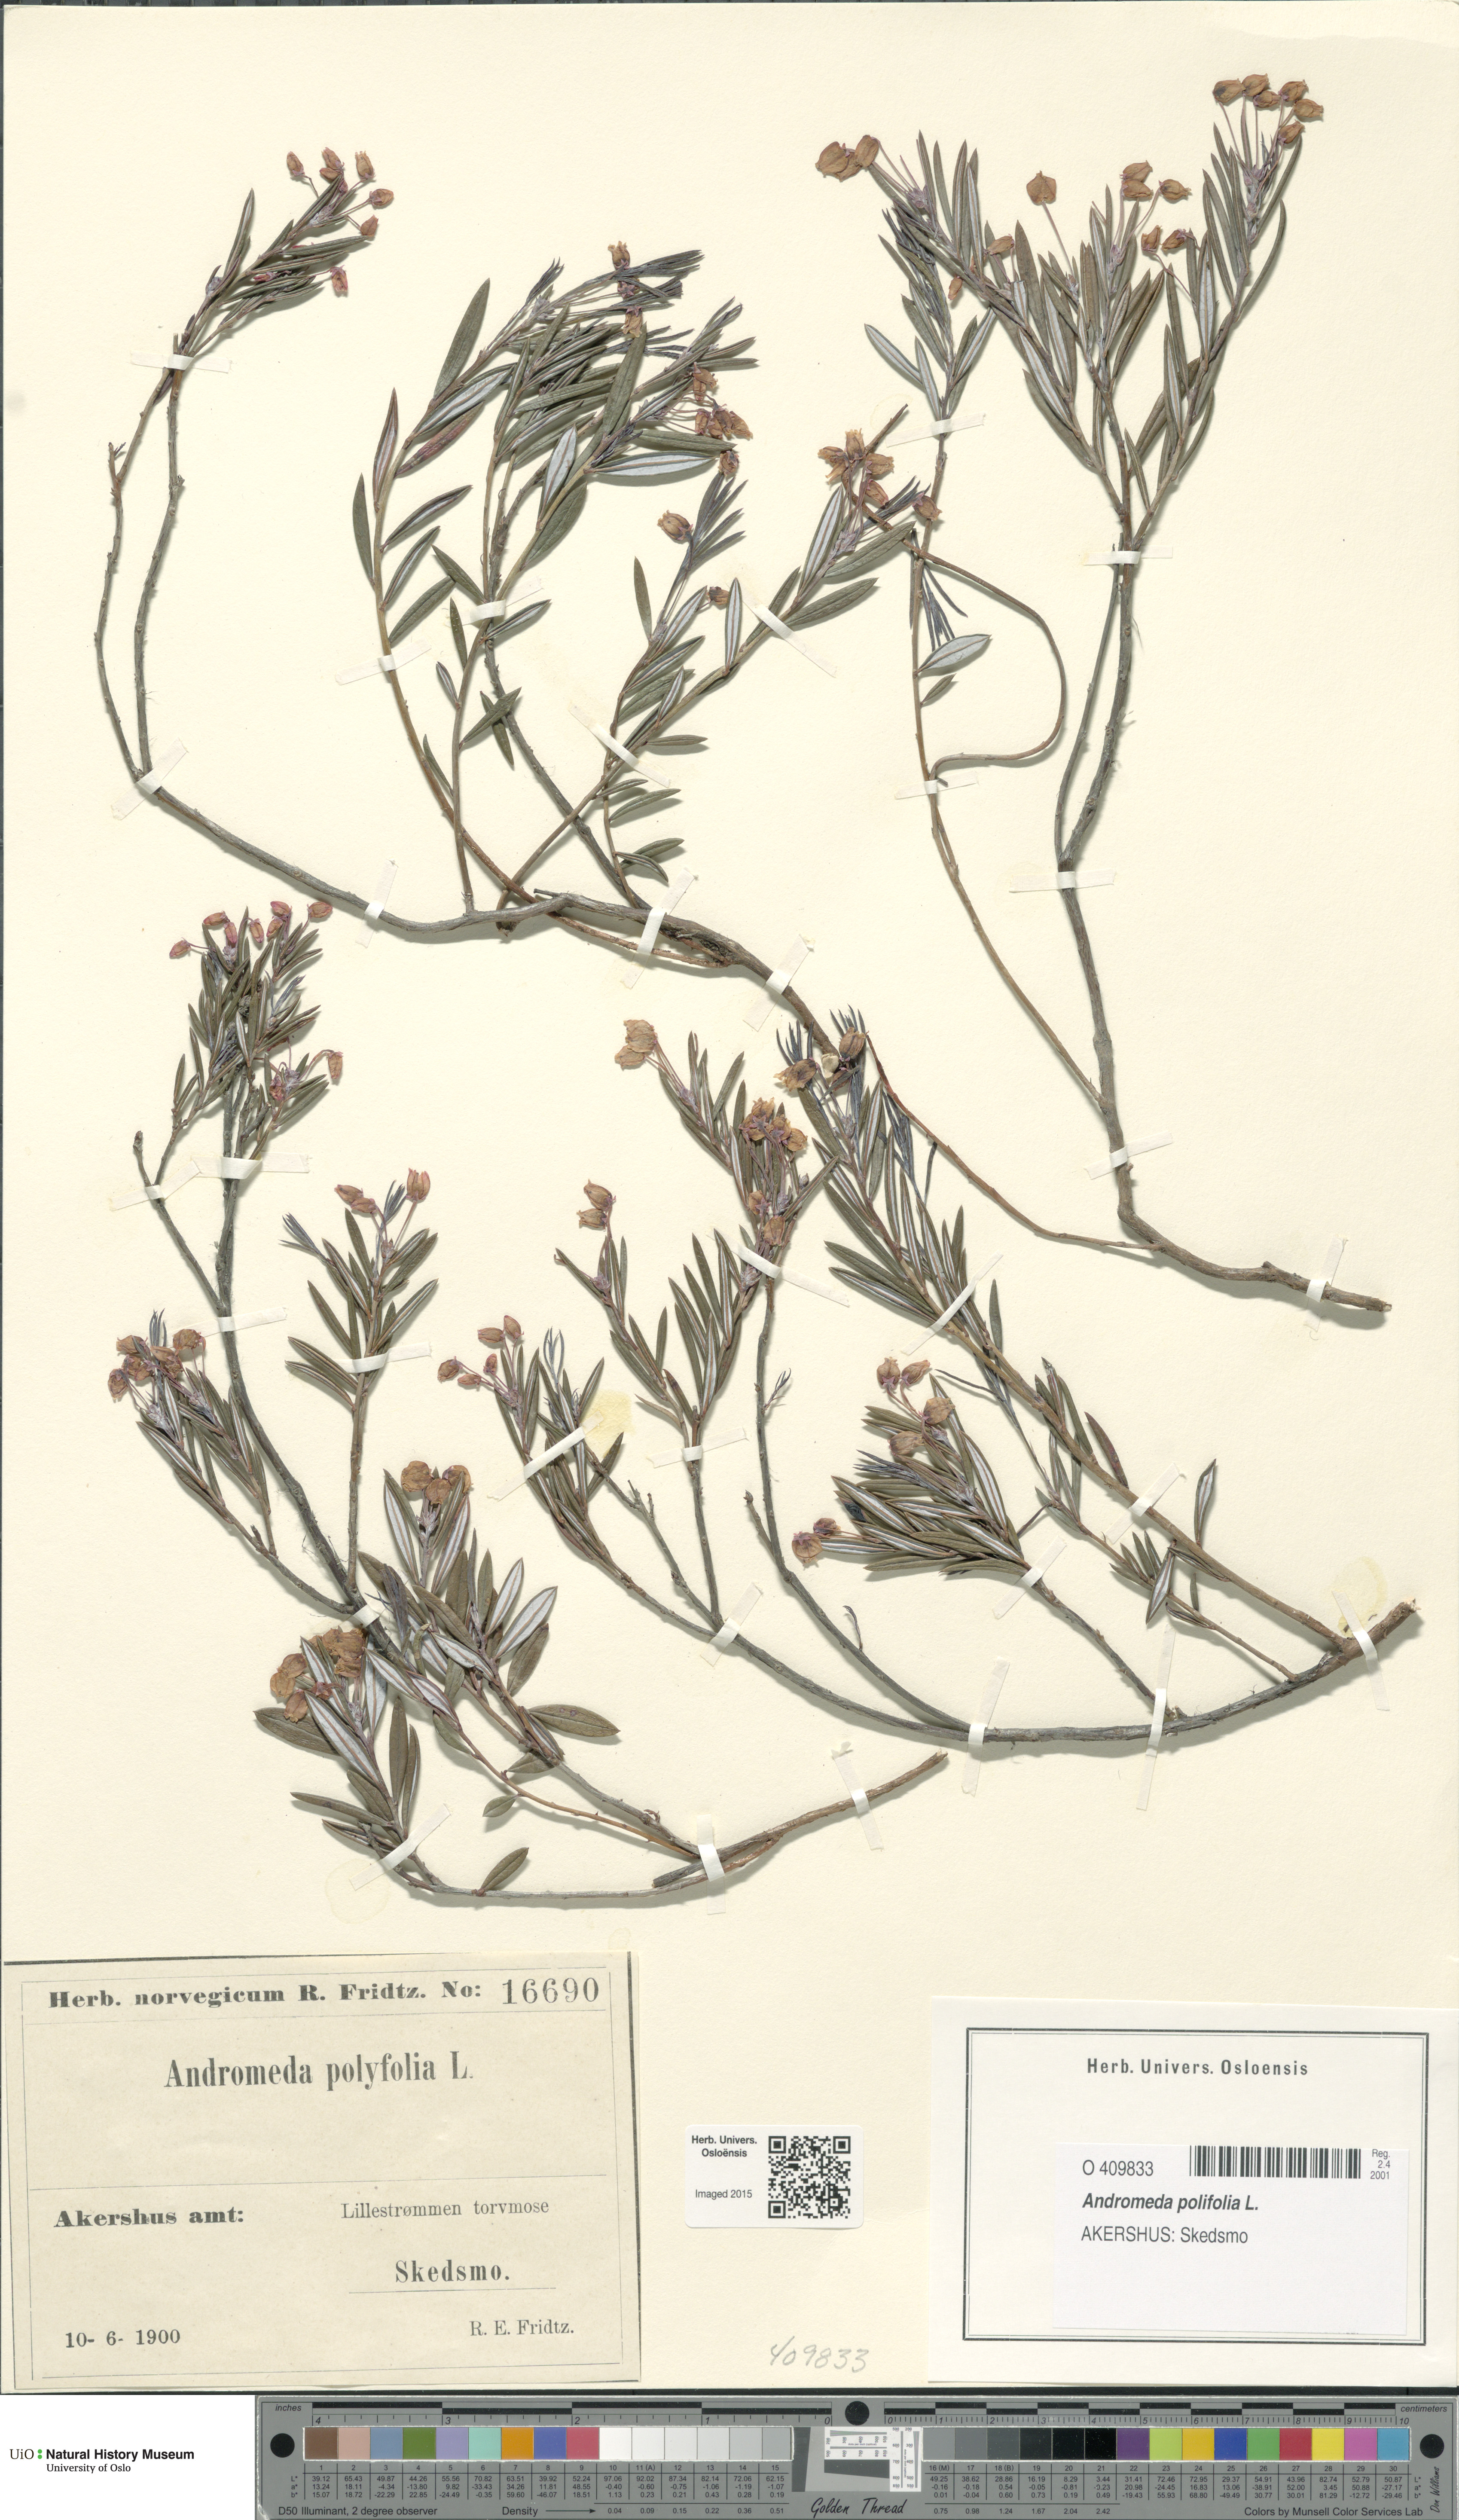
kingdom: Plantae
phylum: Tracheophyta
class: Magnoliopsida
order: Ericales
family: Ericaceae
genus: Andromeda
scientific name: Andromeda polifolia
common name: Bog-rosemary
